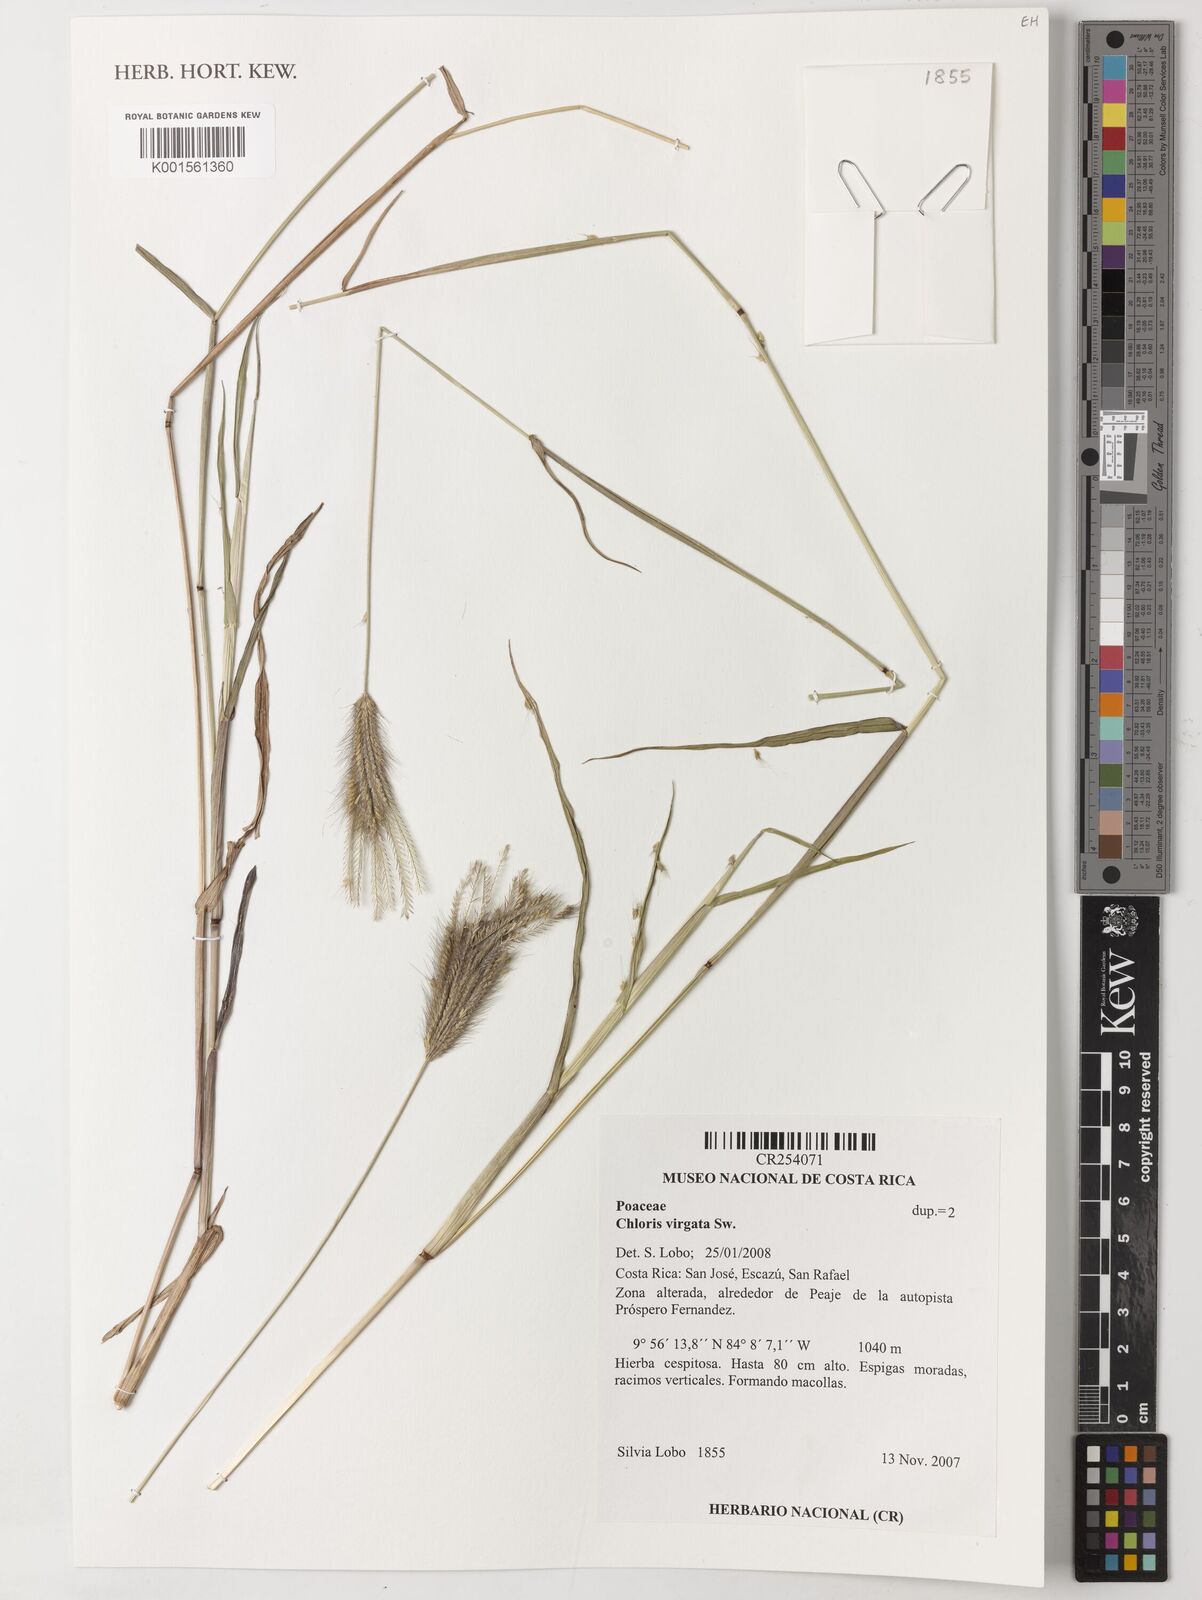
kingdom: Plantae
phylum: Tracheophyta
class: Liliopsida
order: Poales
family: Poaceae
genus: Chloris
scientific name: Chloris virgata
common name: Feathery rhodes-grass
